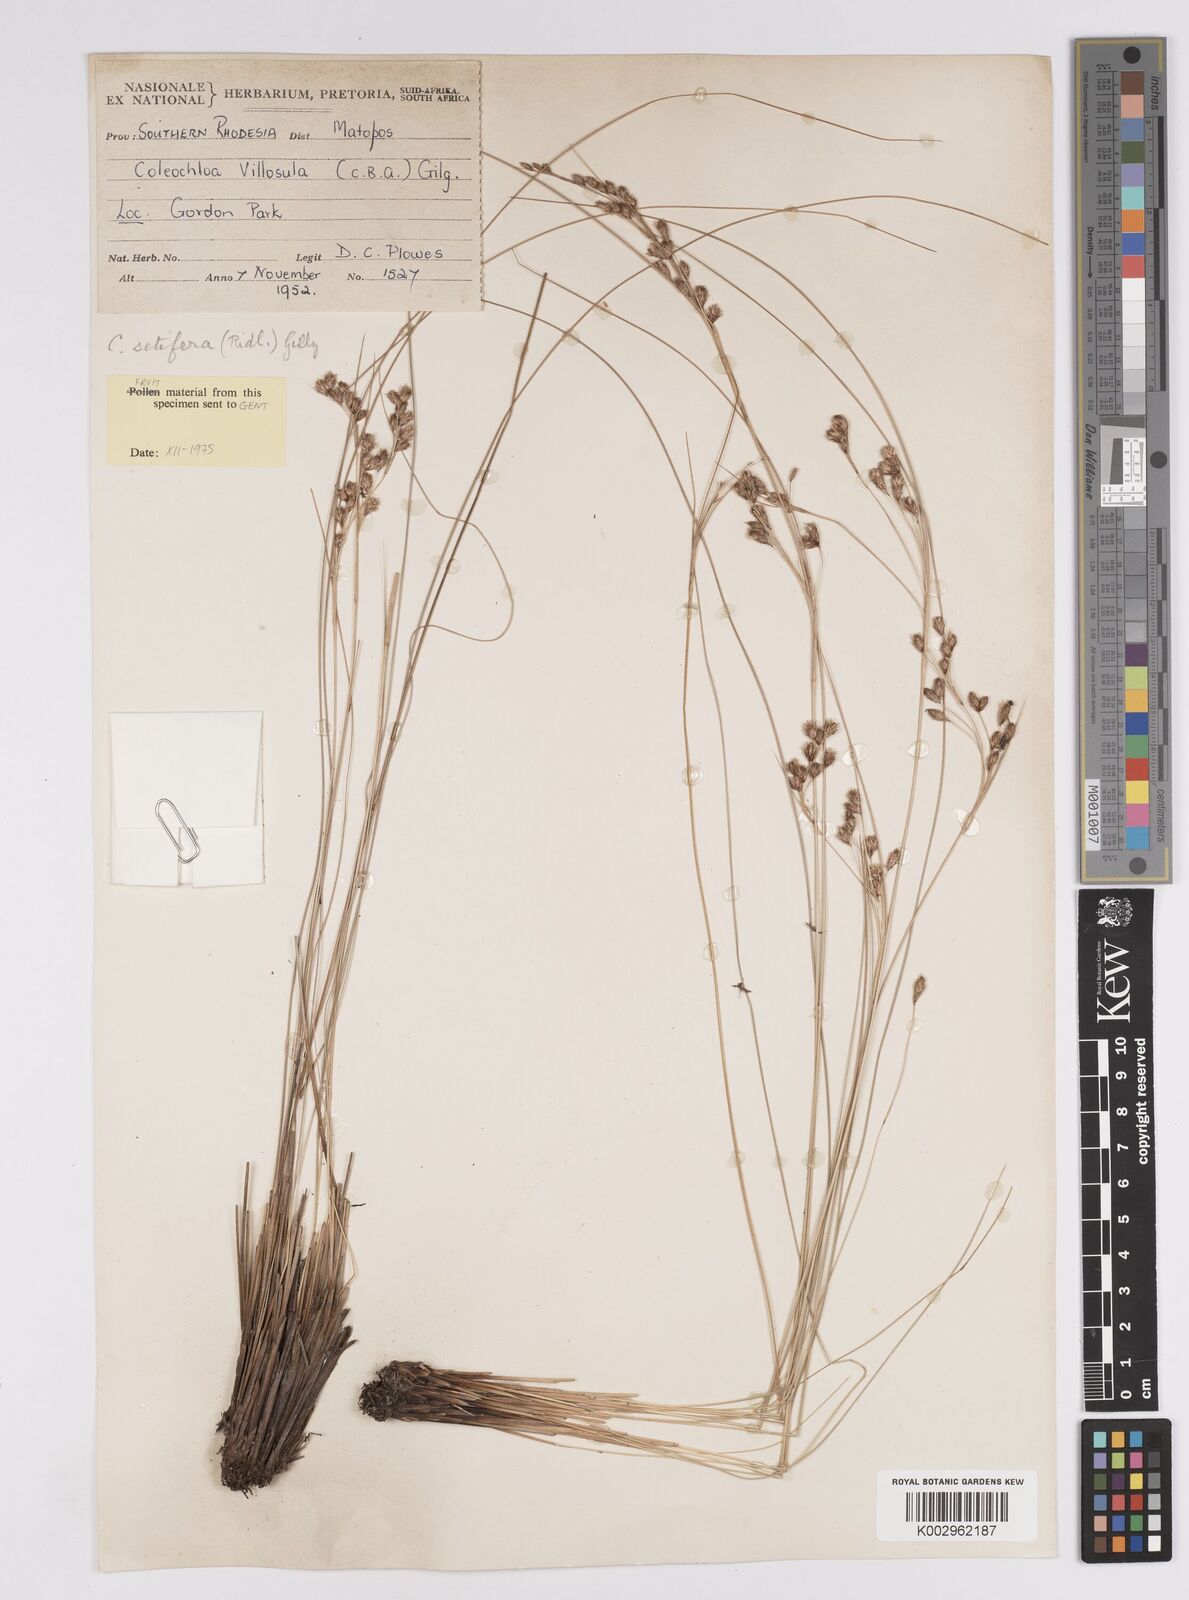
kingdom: Plantae
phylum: Tracheophyta
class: Liliopsida
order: Poales
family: Cyperaceae
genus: Coleochloa
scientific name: Coleochloa setifera
